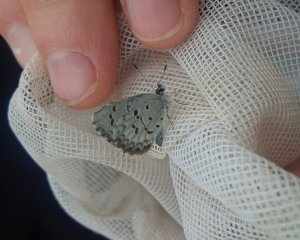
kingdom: Animalia
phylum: Arthropoda
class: Insecta
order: Lepidoptera
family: Lycaenidae
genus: Celastrina
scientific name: Celastrina lucia
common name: Northern Spring Azure
